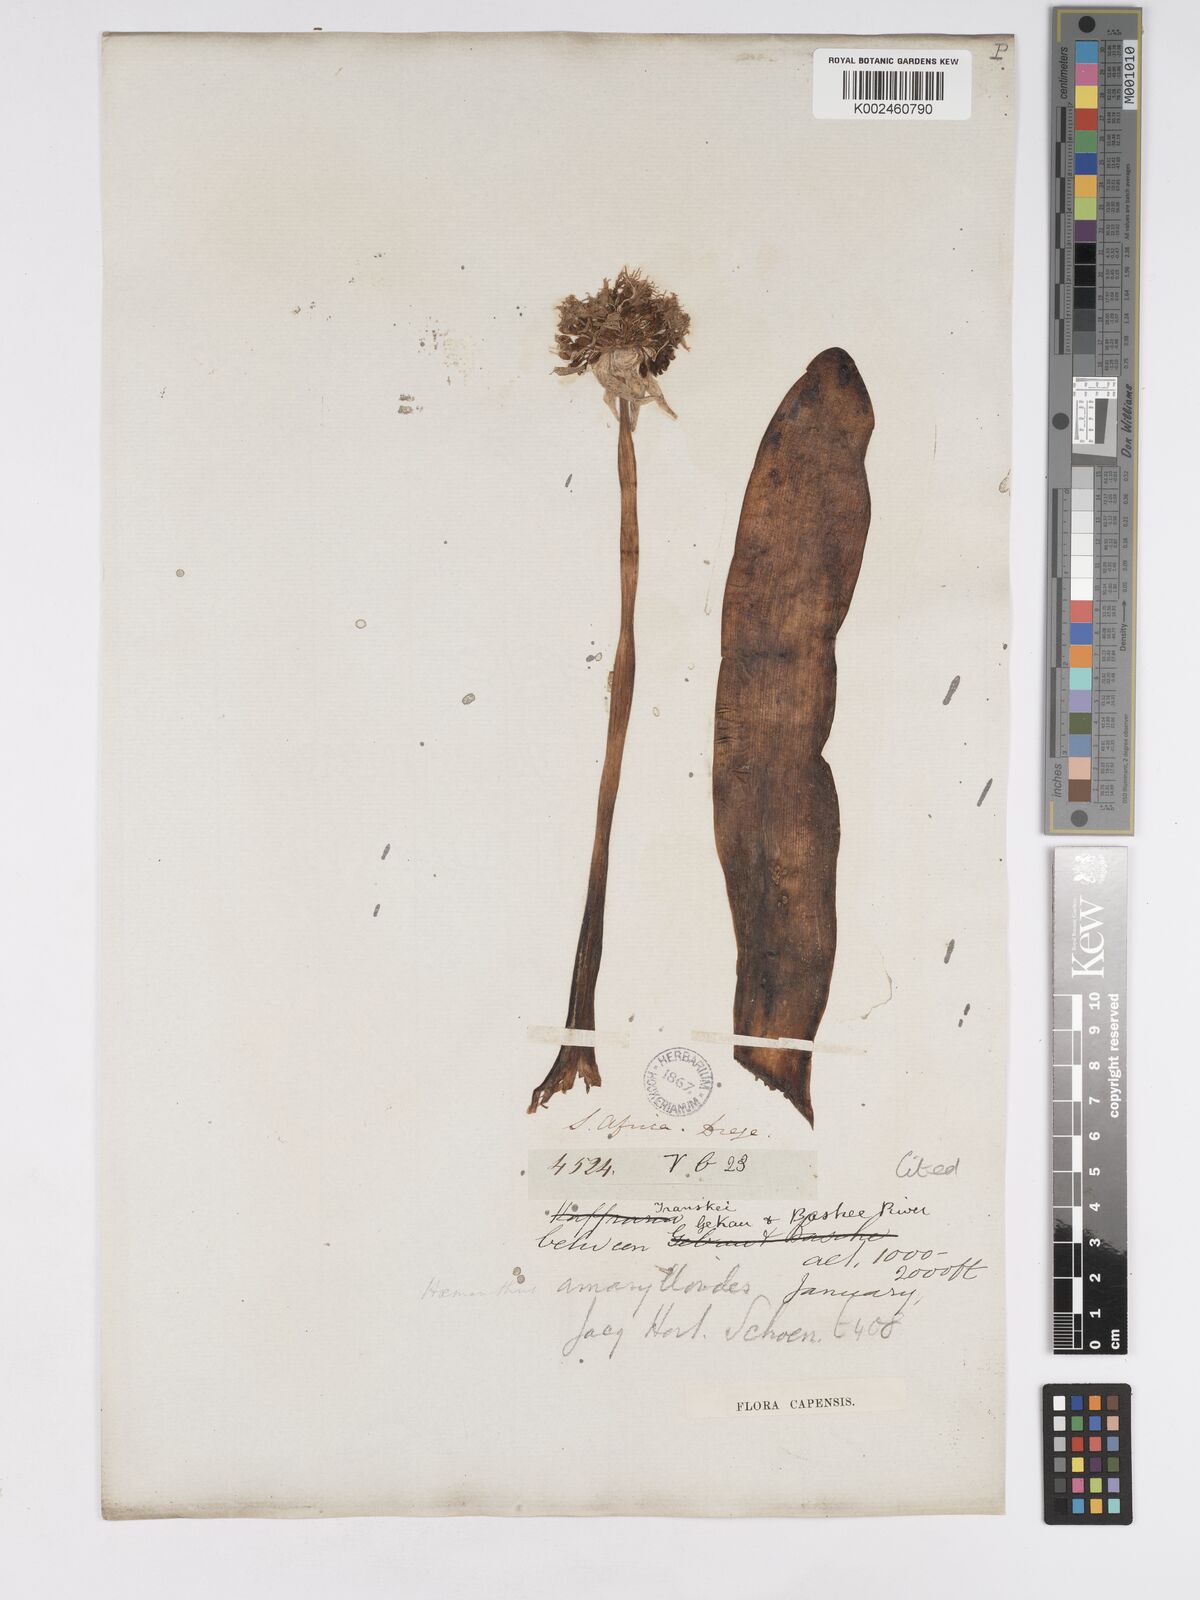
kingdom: Plantae
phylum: Tracheophyta
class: Liliopsida
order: Asparagales
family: Amaryllidaceae
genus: Haemanthus
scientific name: Haemanthus montanus
